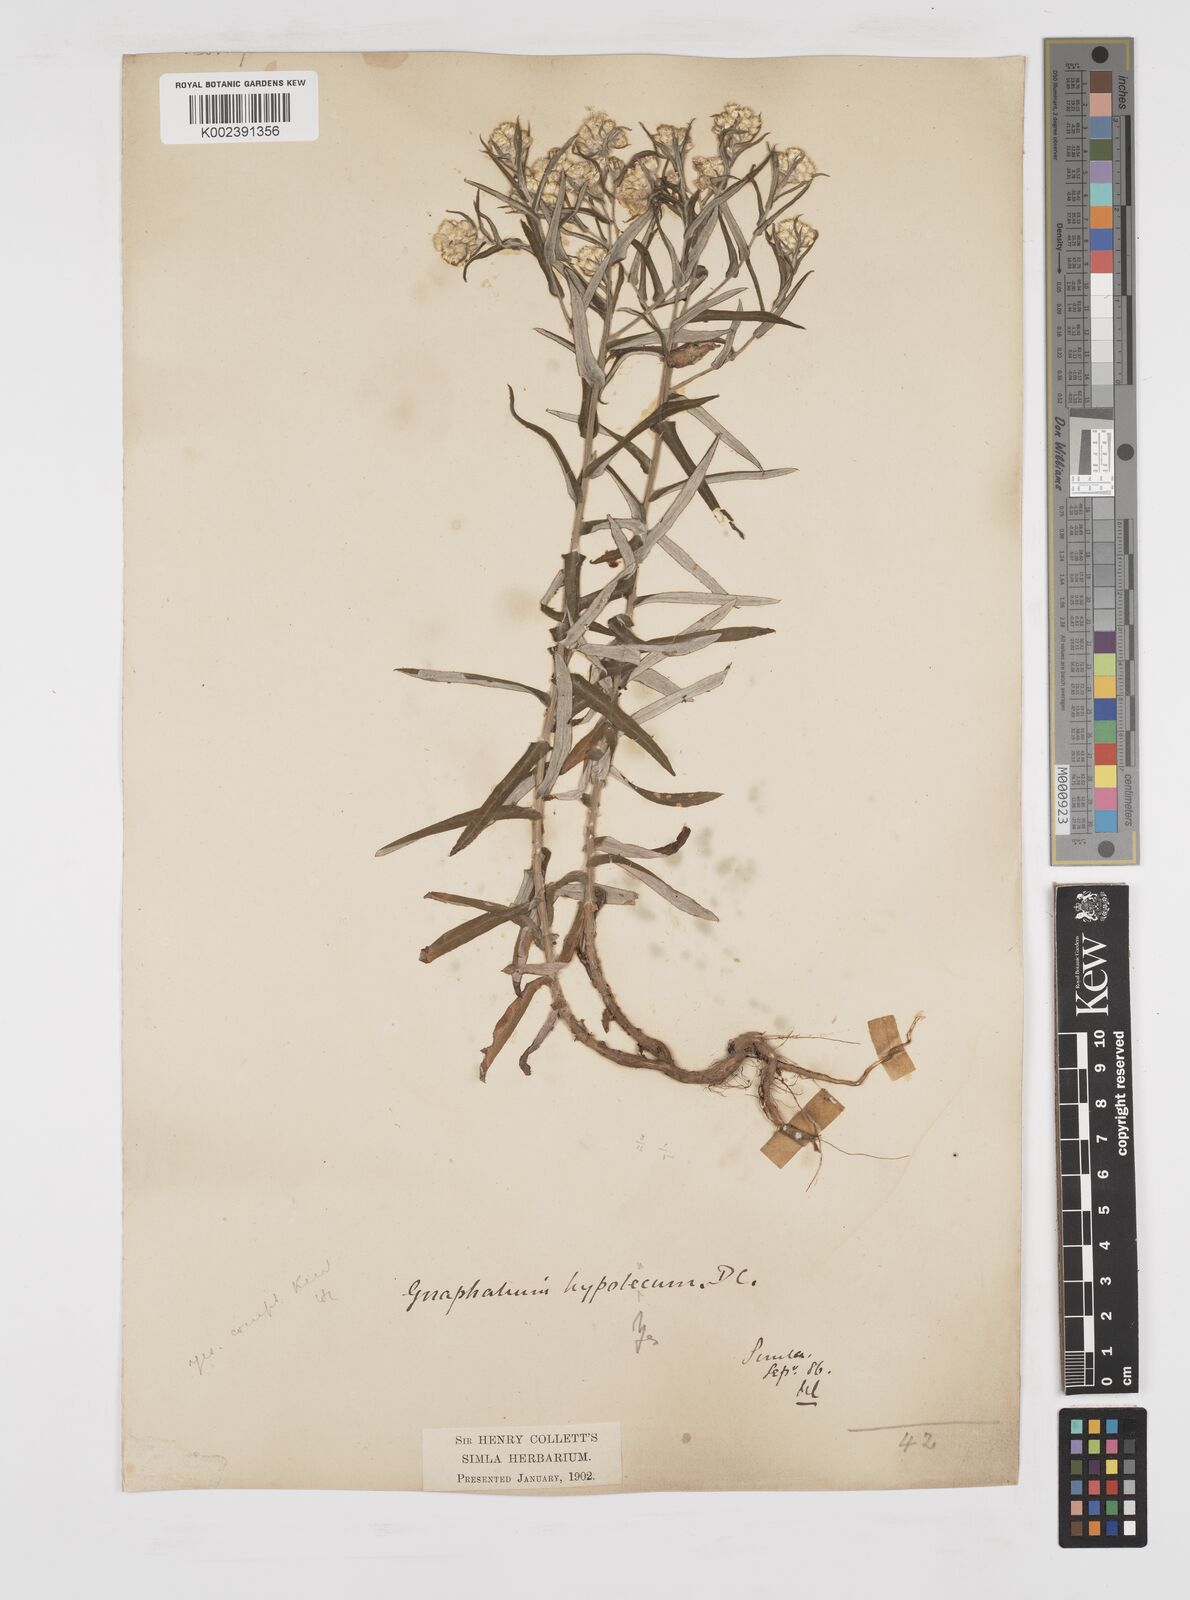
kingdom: Plantae
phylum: Tracheophyta
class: Magnoliopsida
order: Asterales
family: Asteraceae
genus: Pseudognaphalium
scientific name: Pseudognaphalium hypoleucum
